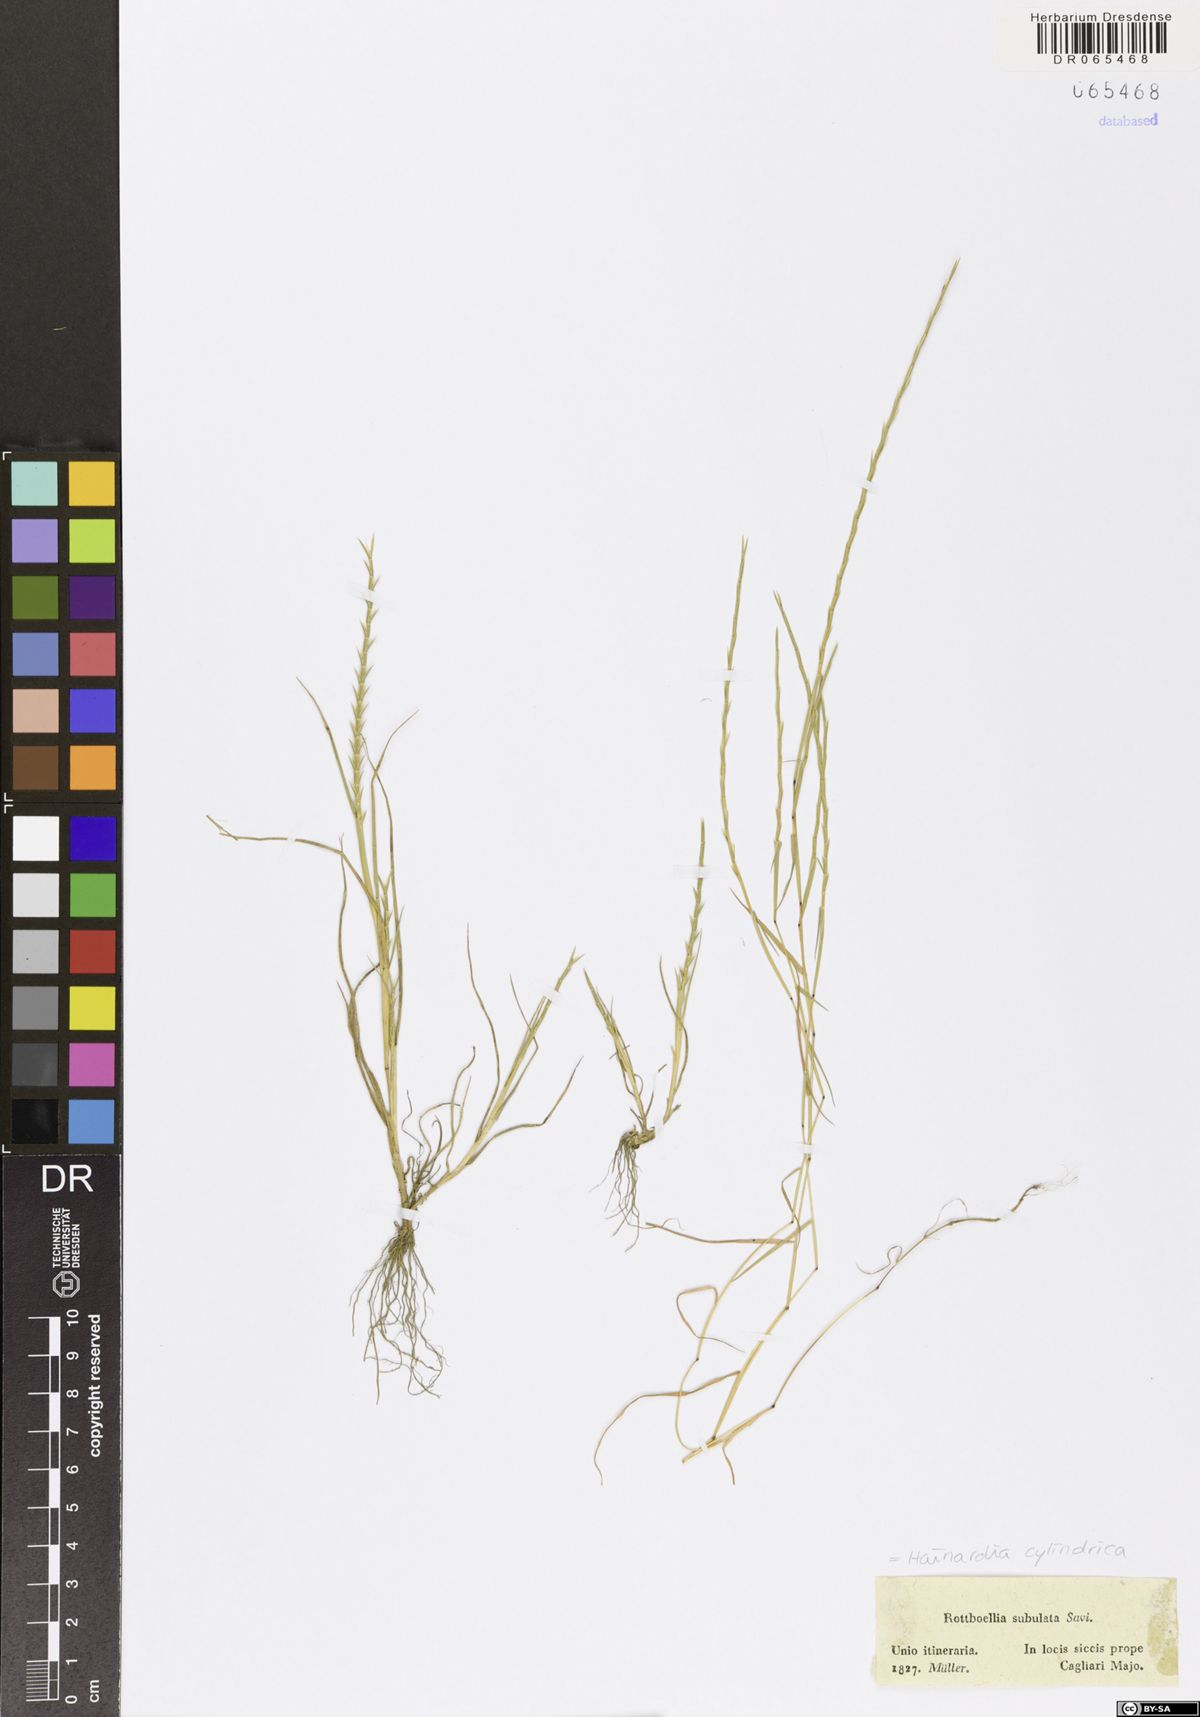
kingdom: Plantae
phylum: Tracheophyta
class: Liliopsida
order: Poales
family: Poaceae
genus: Parapholis
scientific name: Parapholis cylindrica
